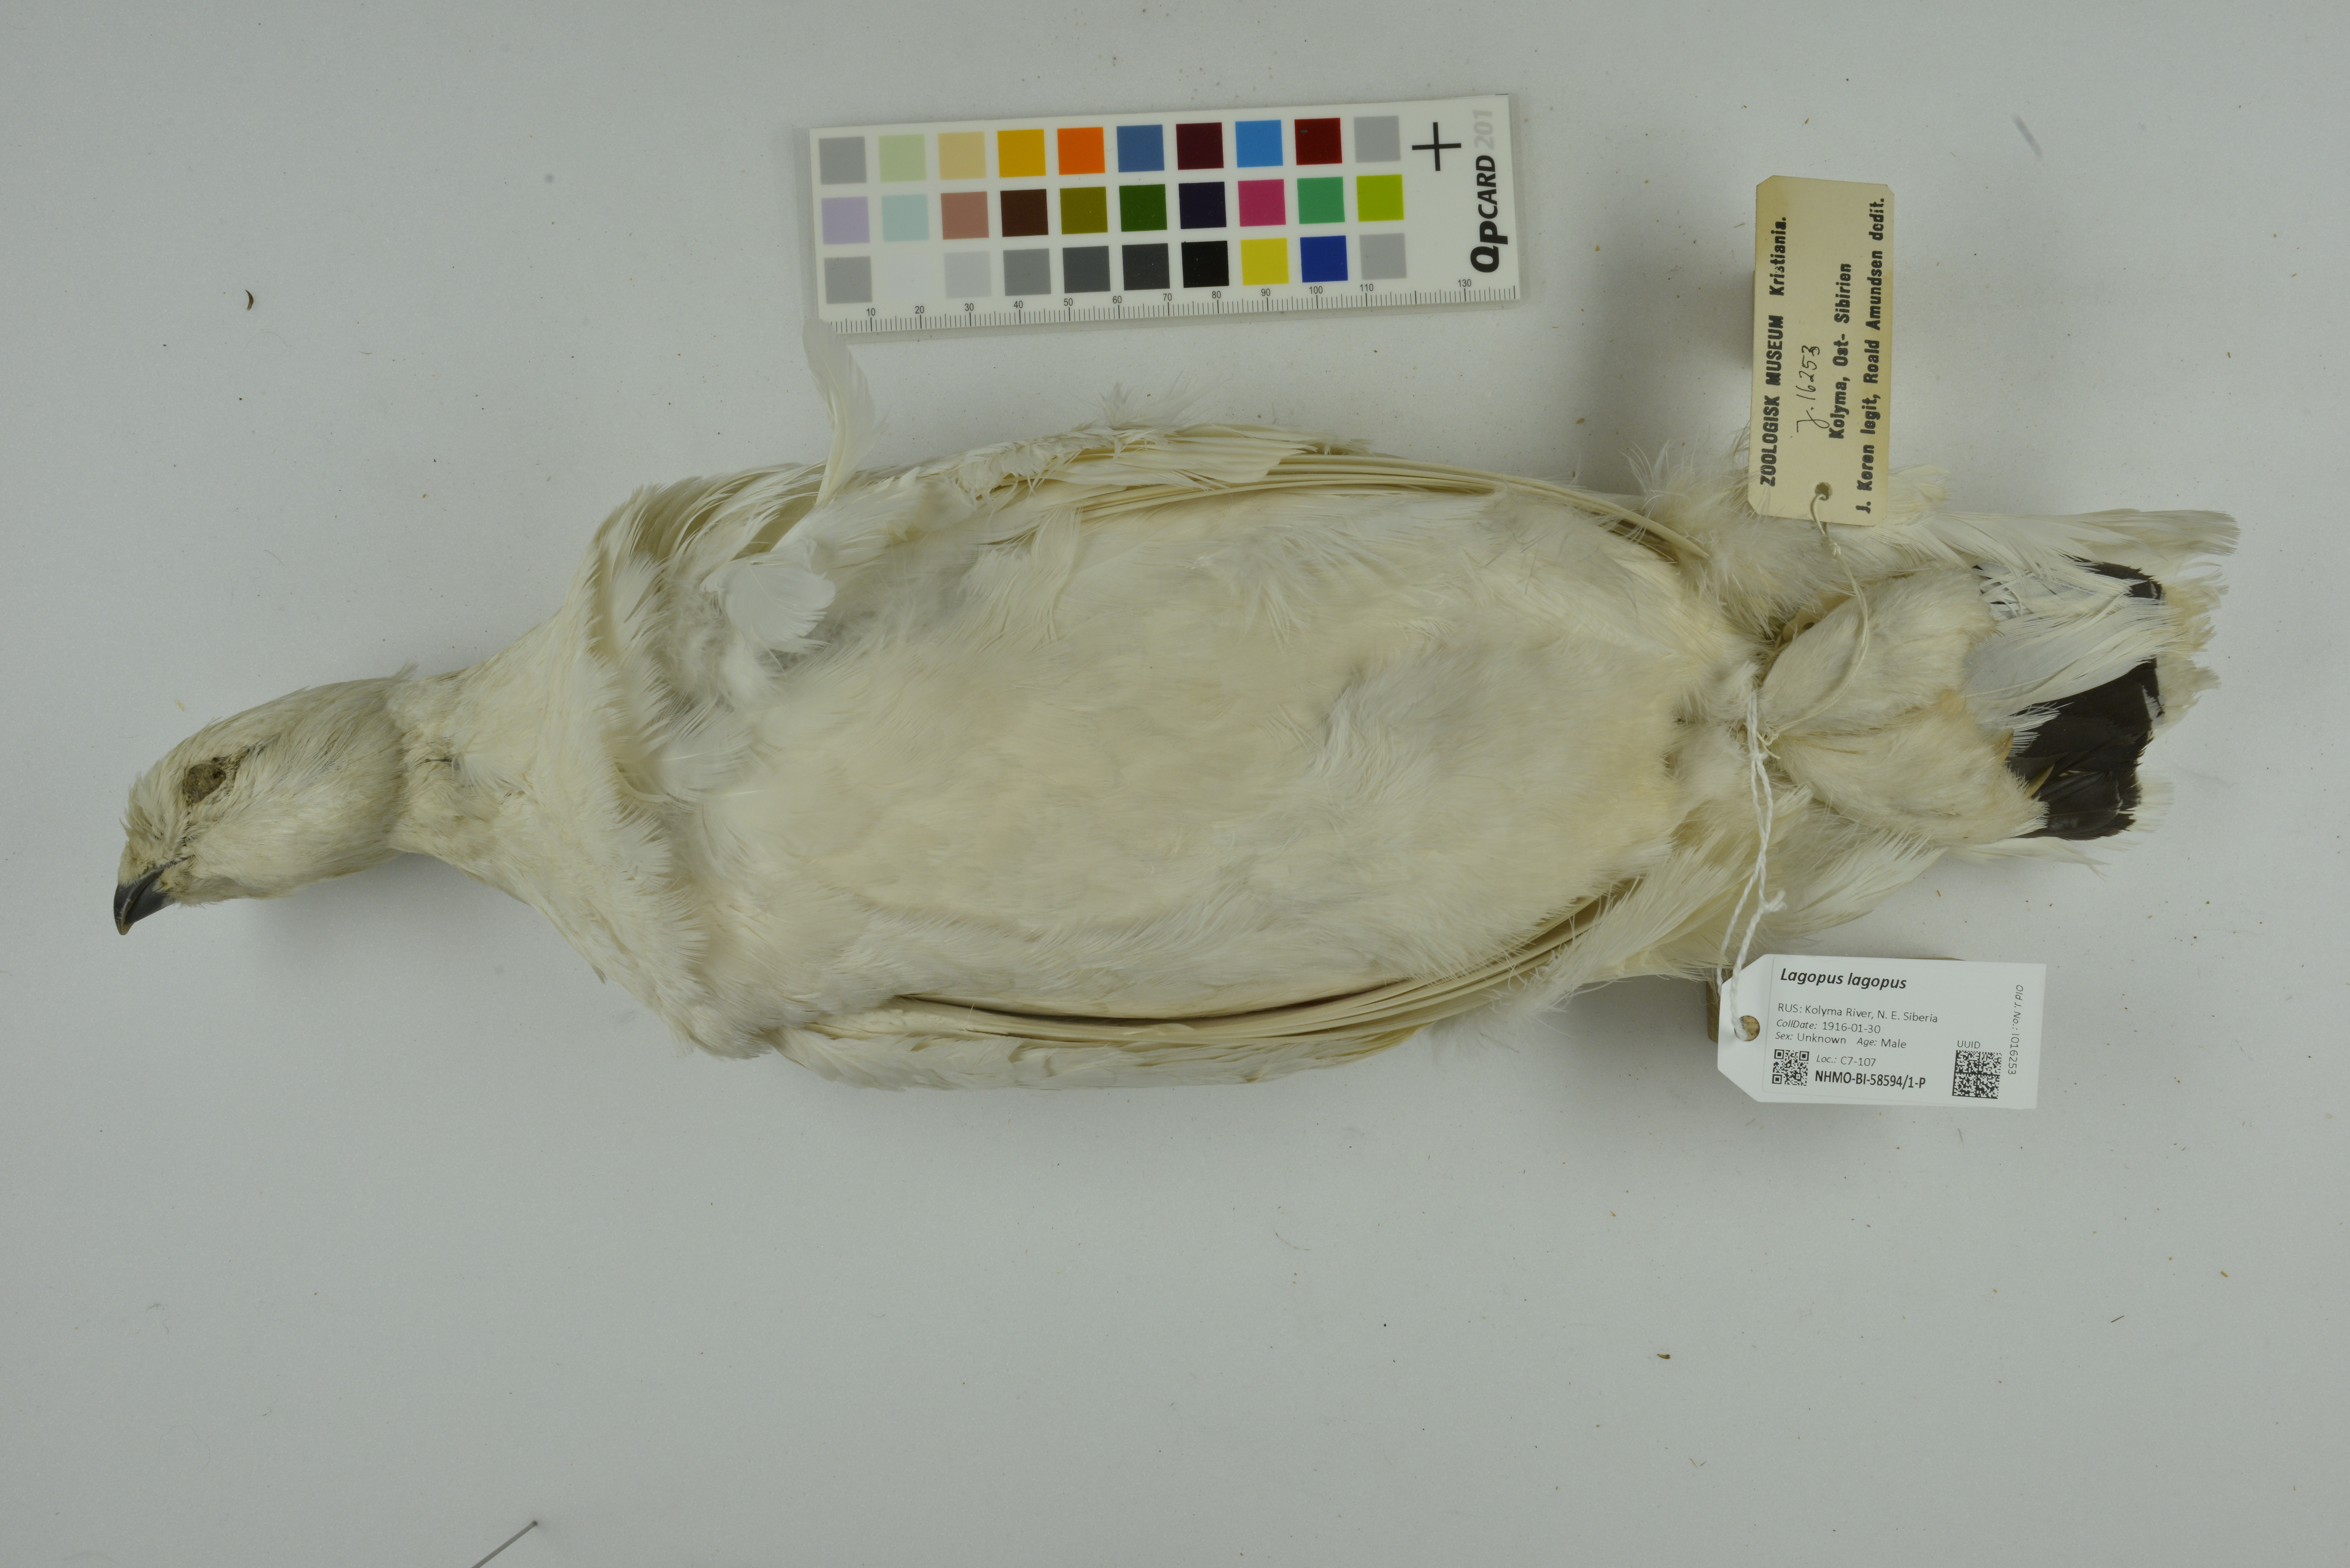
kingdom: Animalia
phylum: Chordata
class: Aves
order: Galliformes
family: Phasianidae
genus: Lagopus
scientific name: Lagopus lagopus
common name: Willow ptarmigan
